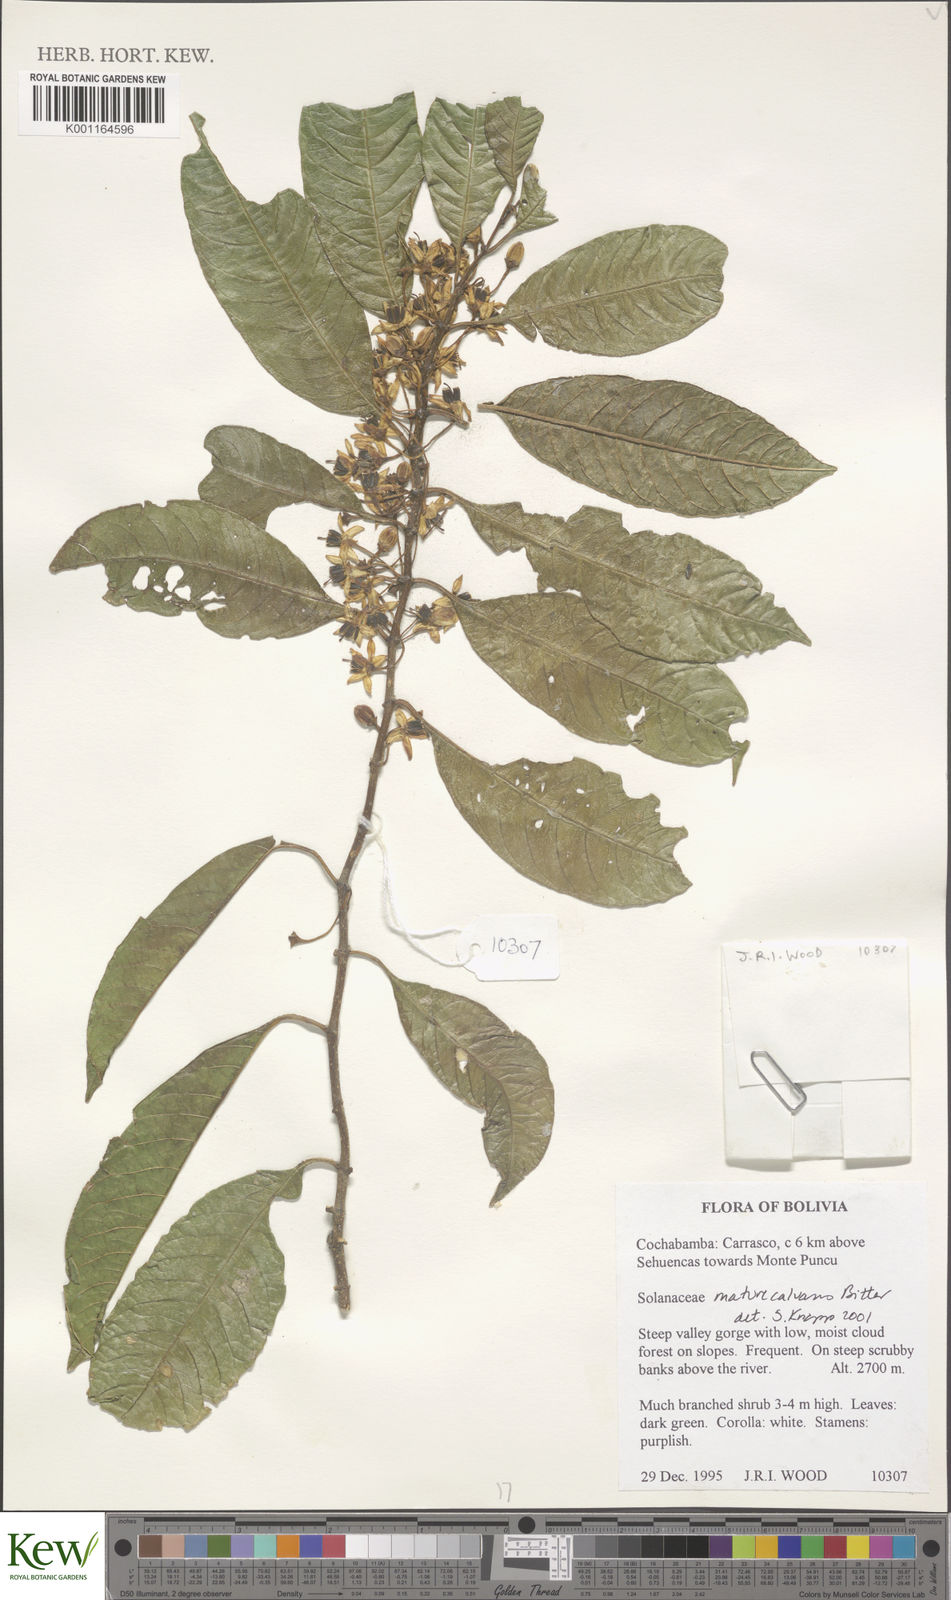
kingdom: Plantae
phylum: Tracheophyta
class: Magnoliopsida
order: Solanales
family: Solanaceae
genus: Solanum
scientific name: Solanum maturecalvans
